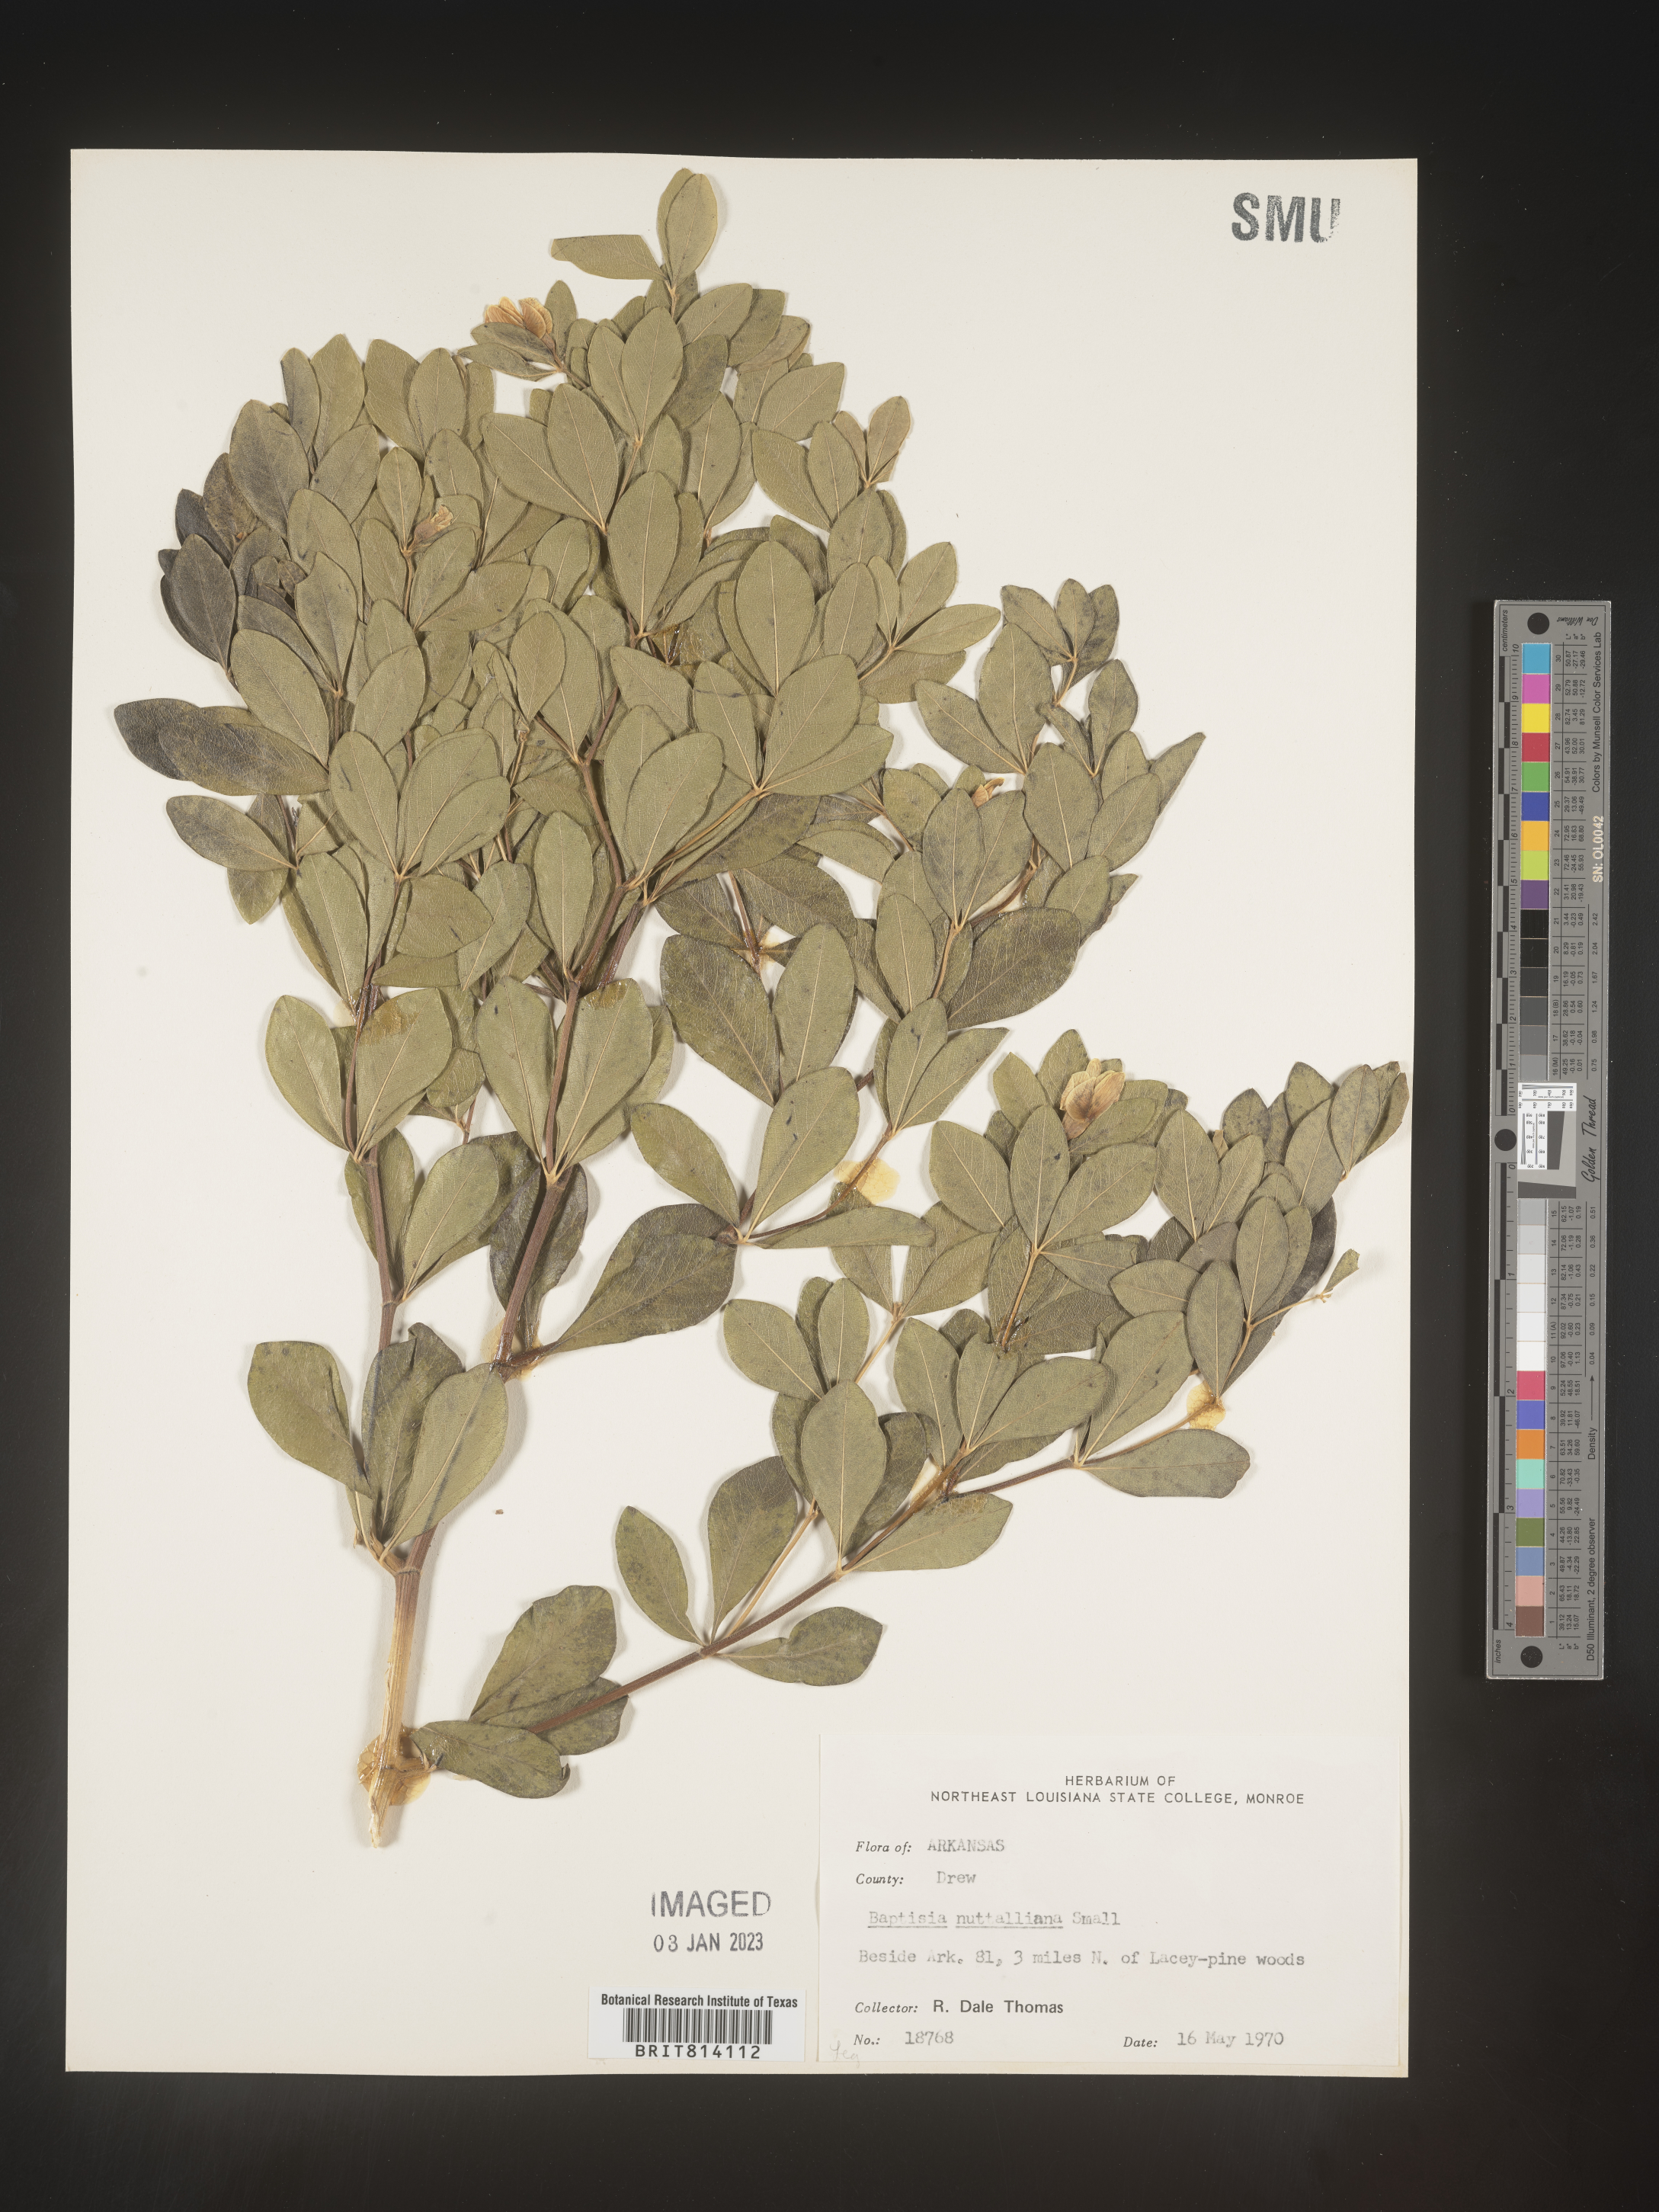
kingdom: Plantae
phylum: Tracheophyta
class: Magnoliopsida
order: Fabales
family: Fabaceae
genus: Baptisia
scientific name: Baptisia nuttalliana
